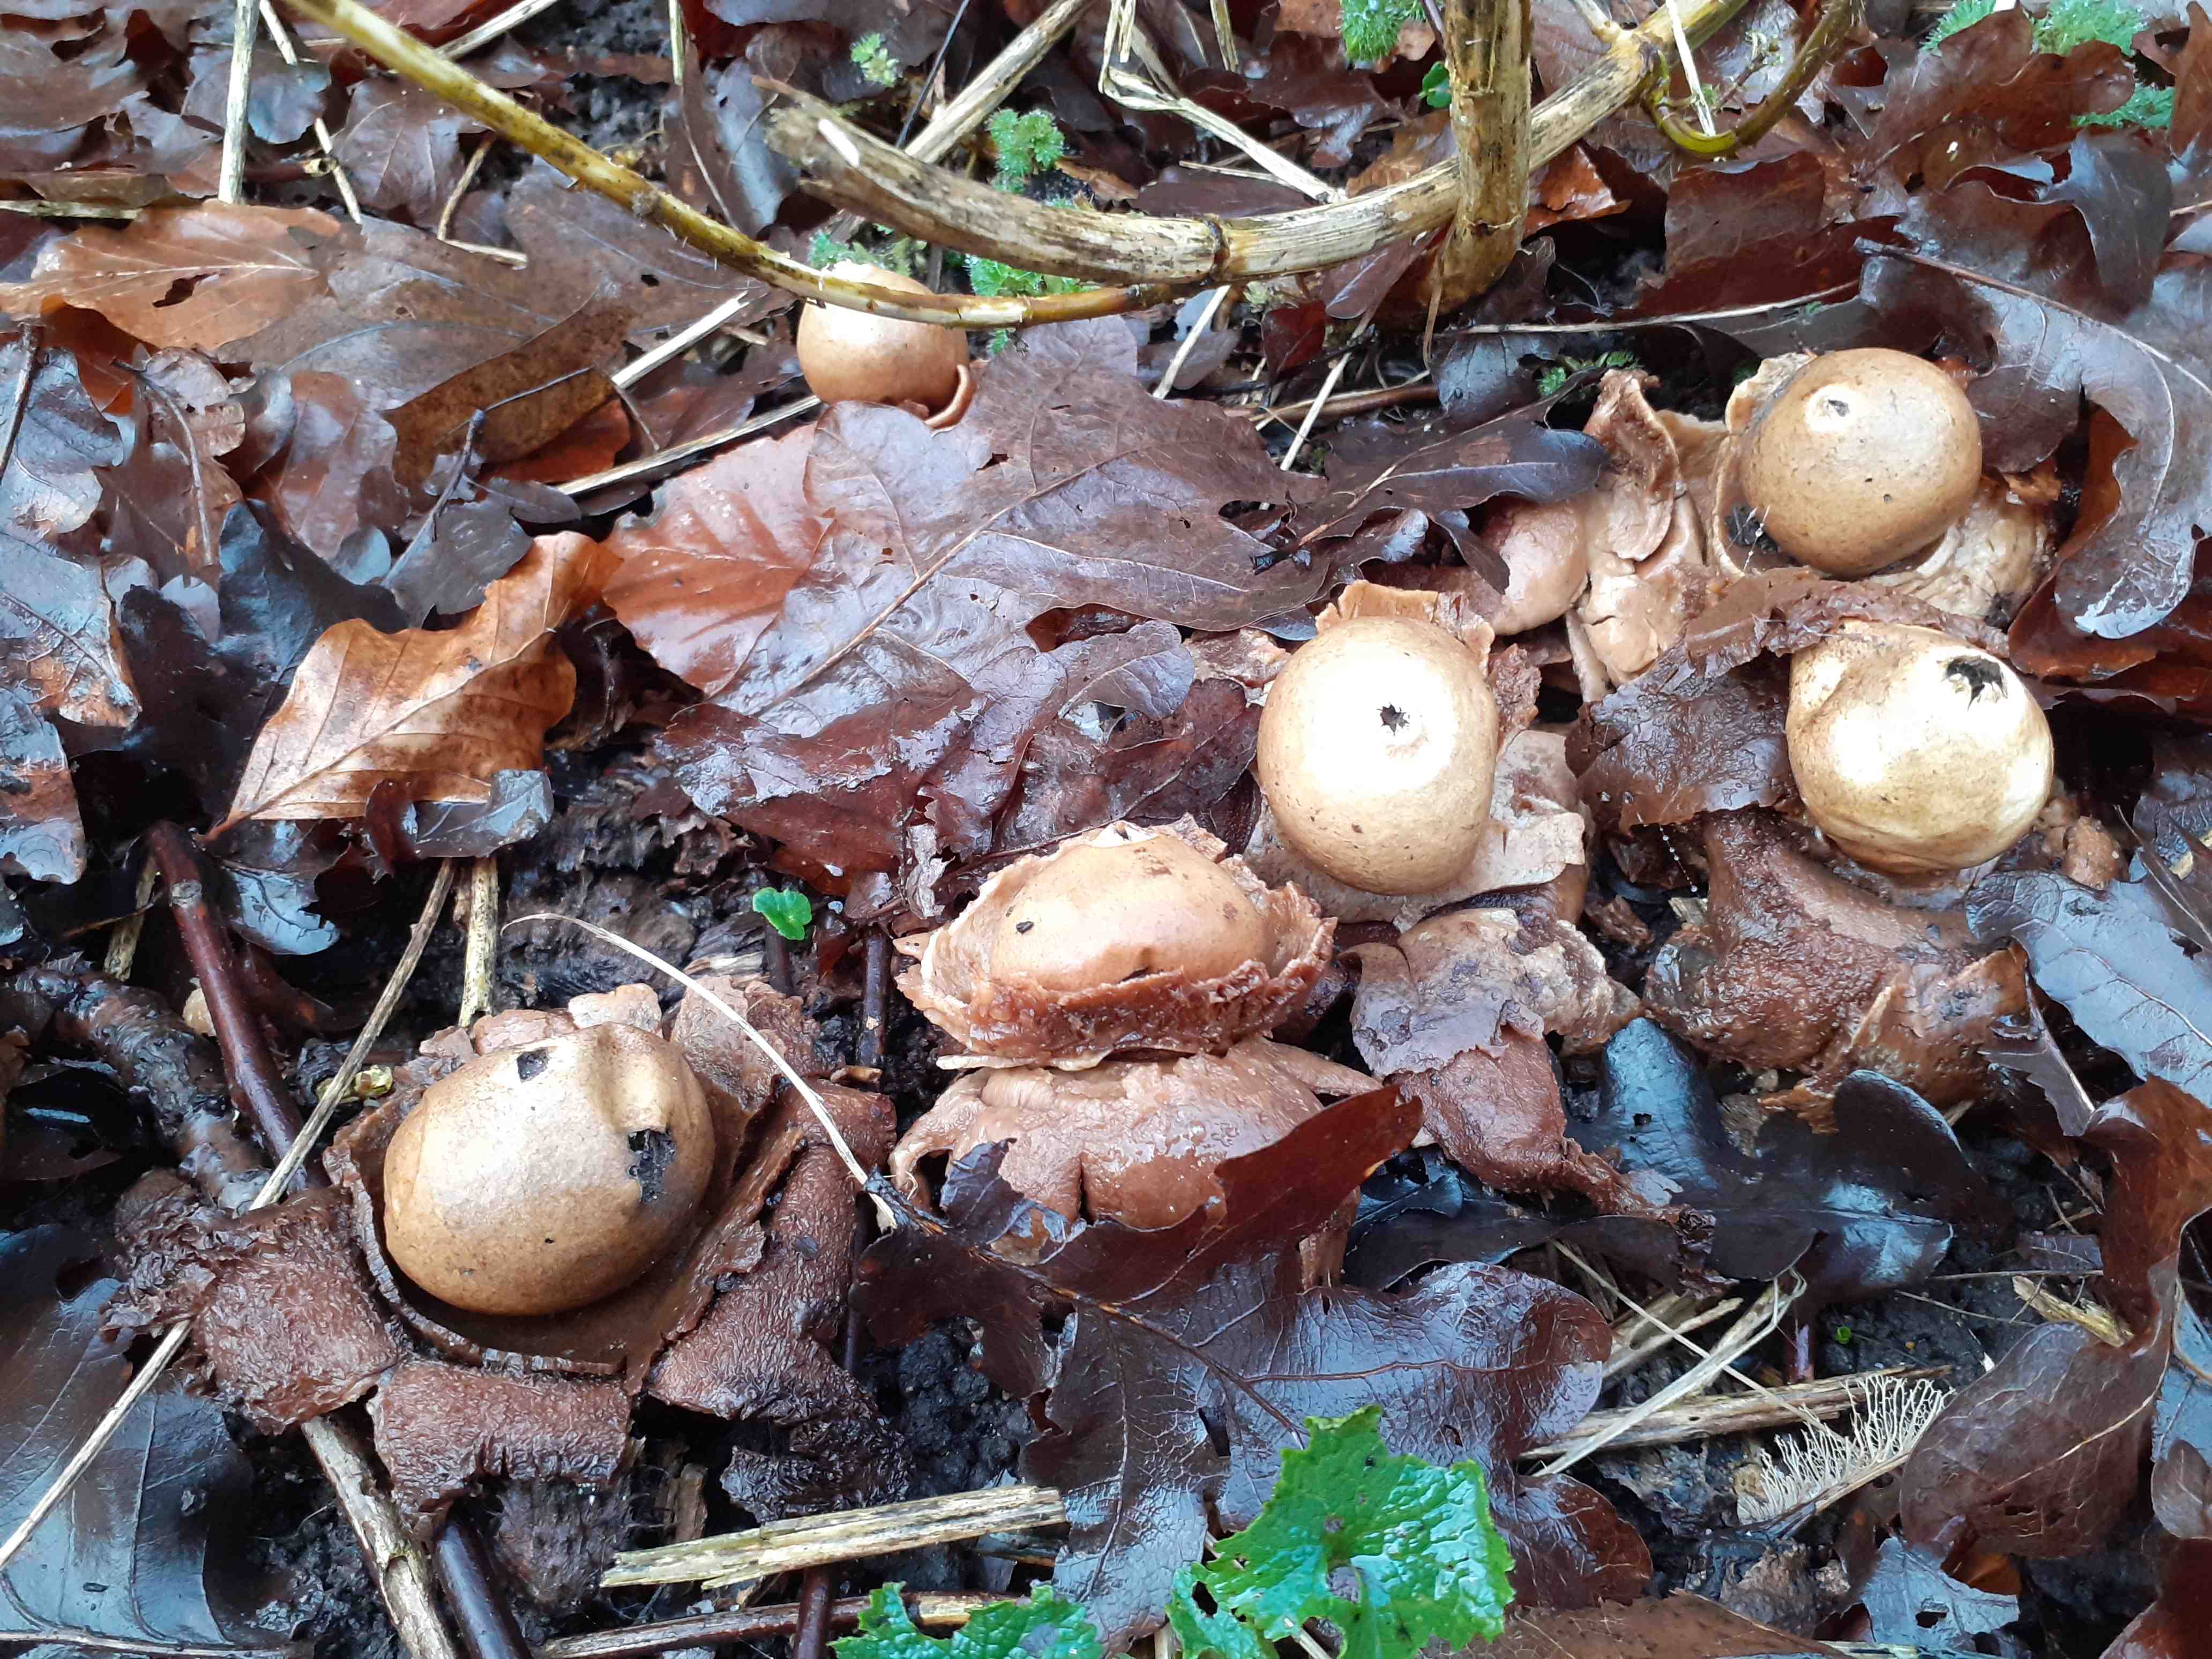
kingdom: Fungi
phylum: Basidiomycota
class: Agaricomycetes
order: Geastrales
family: Geastraceae
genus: Geastrum
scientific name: Geastrum michelianum
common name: kødet stjernebold
